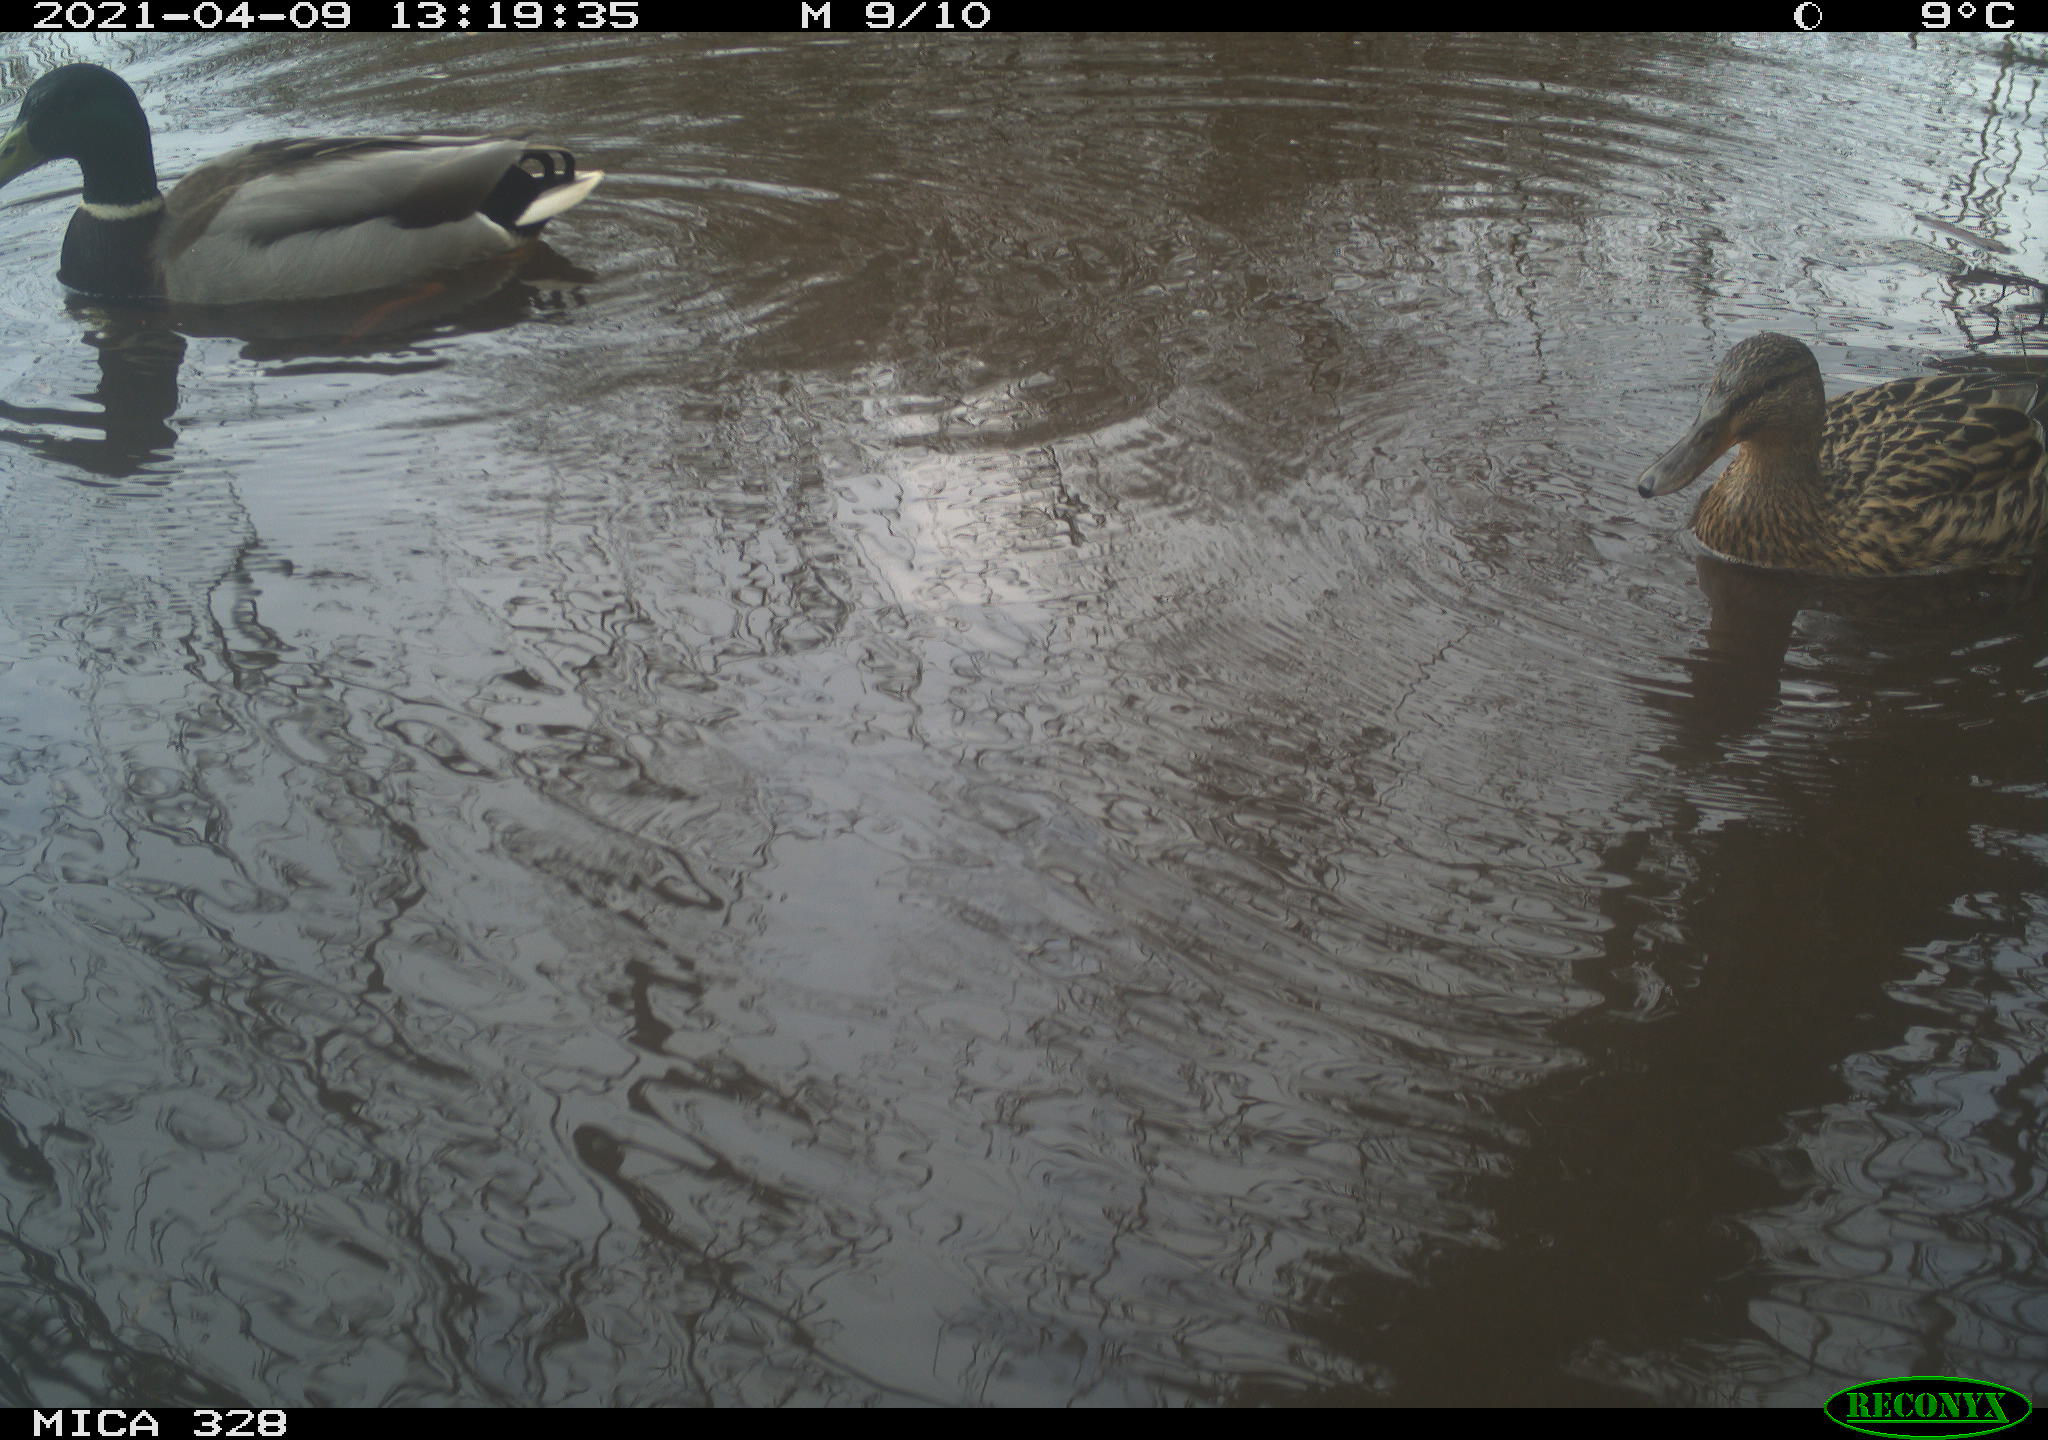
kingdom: Animalia
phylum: Chordata
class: Aves
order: Anseriformes
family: Anatidae
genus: Anas
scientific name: Anas platyrhynchos
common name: Mallard
